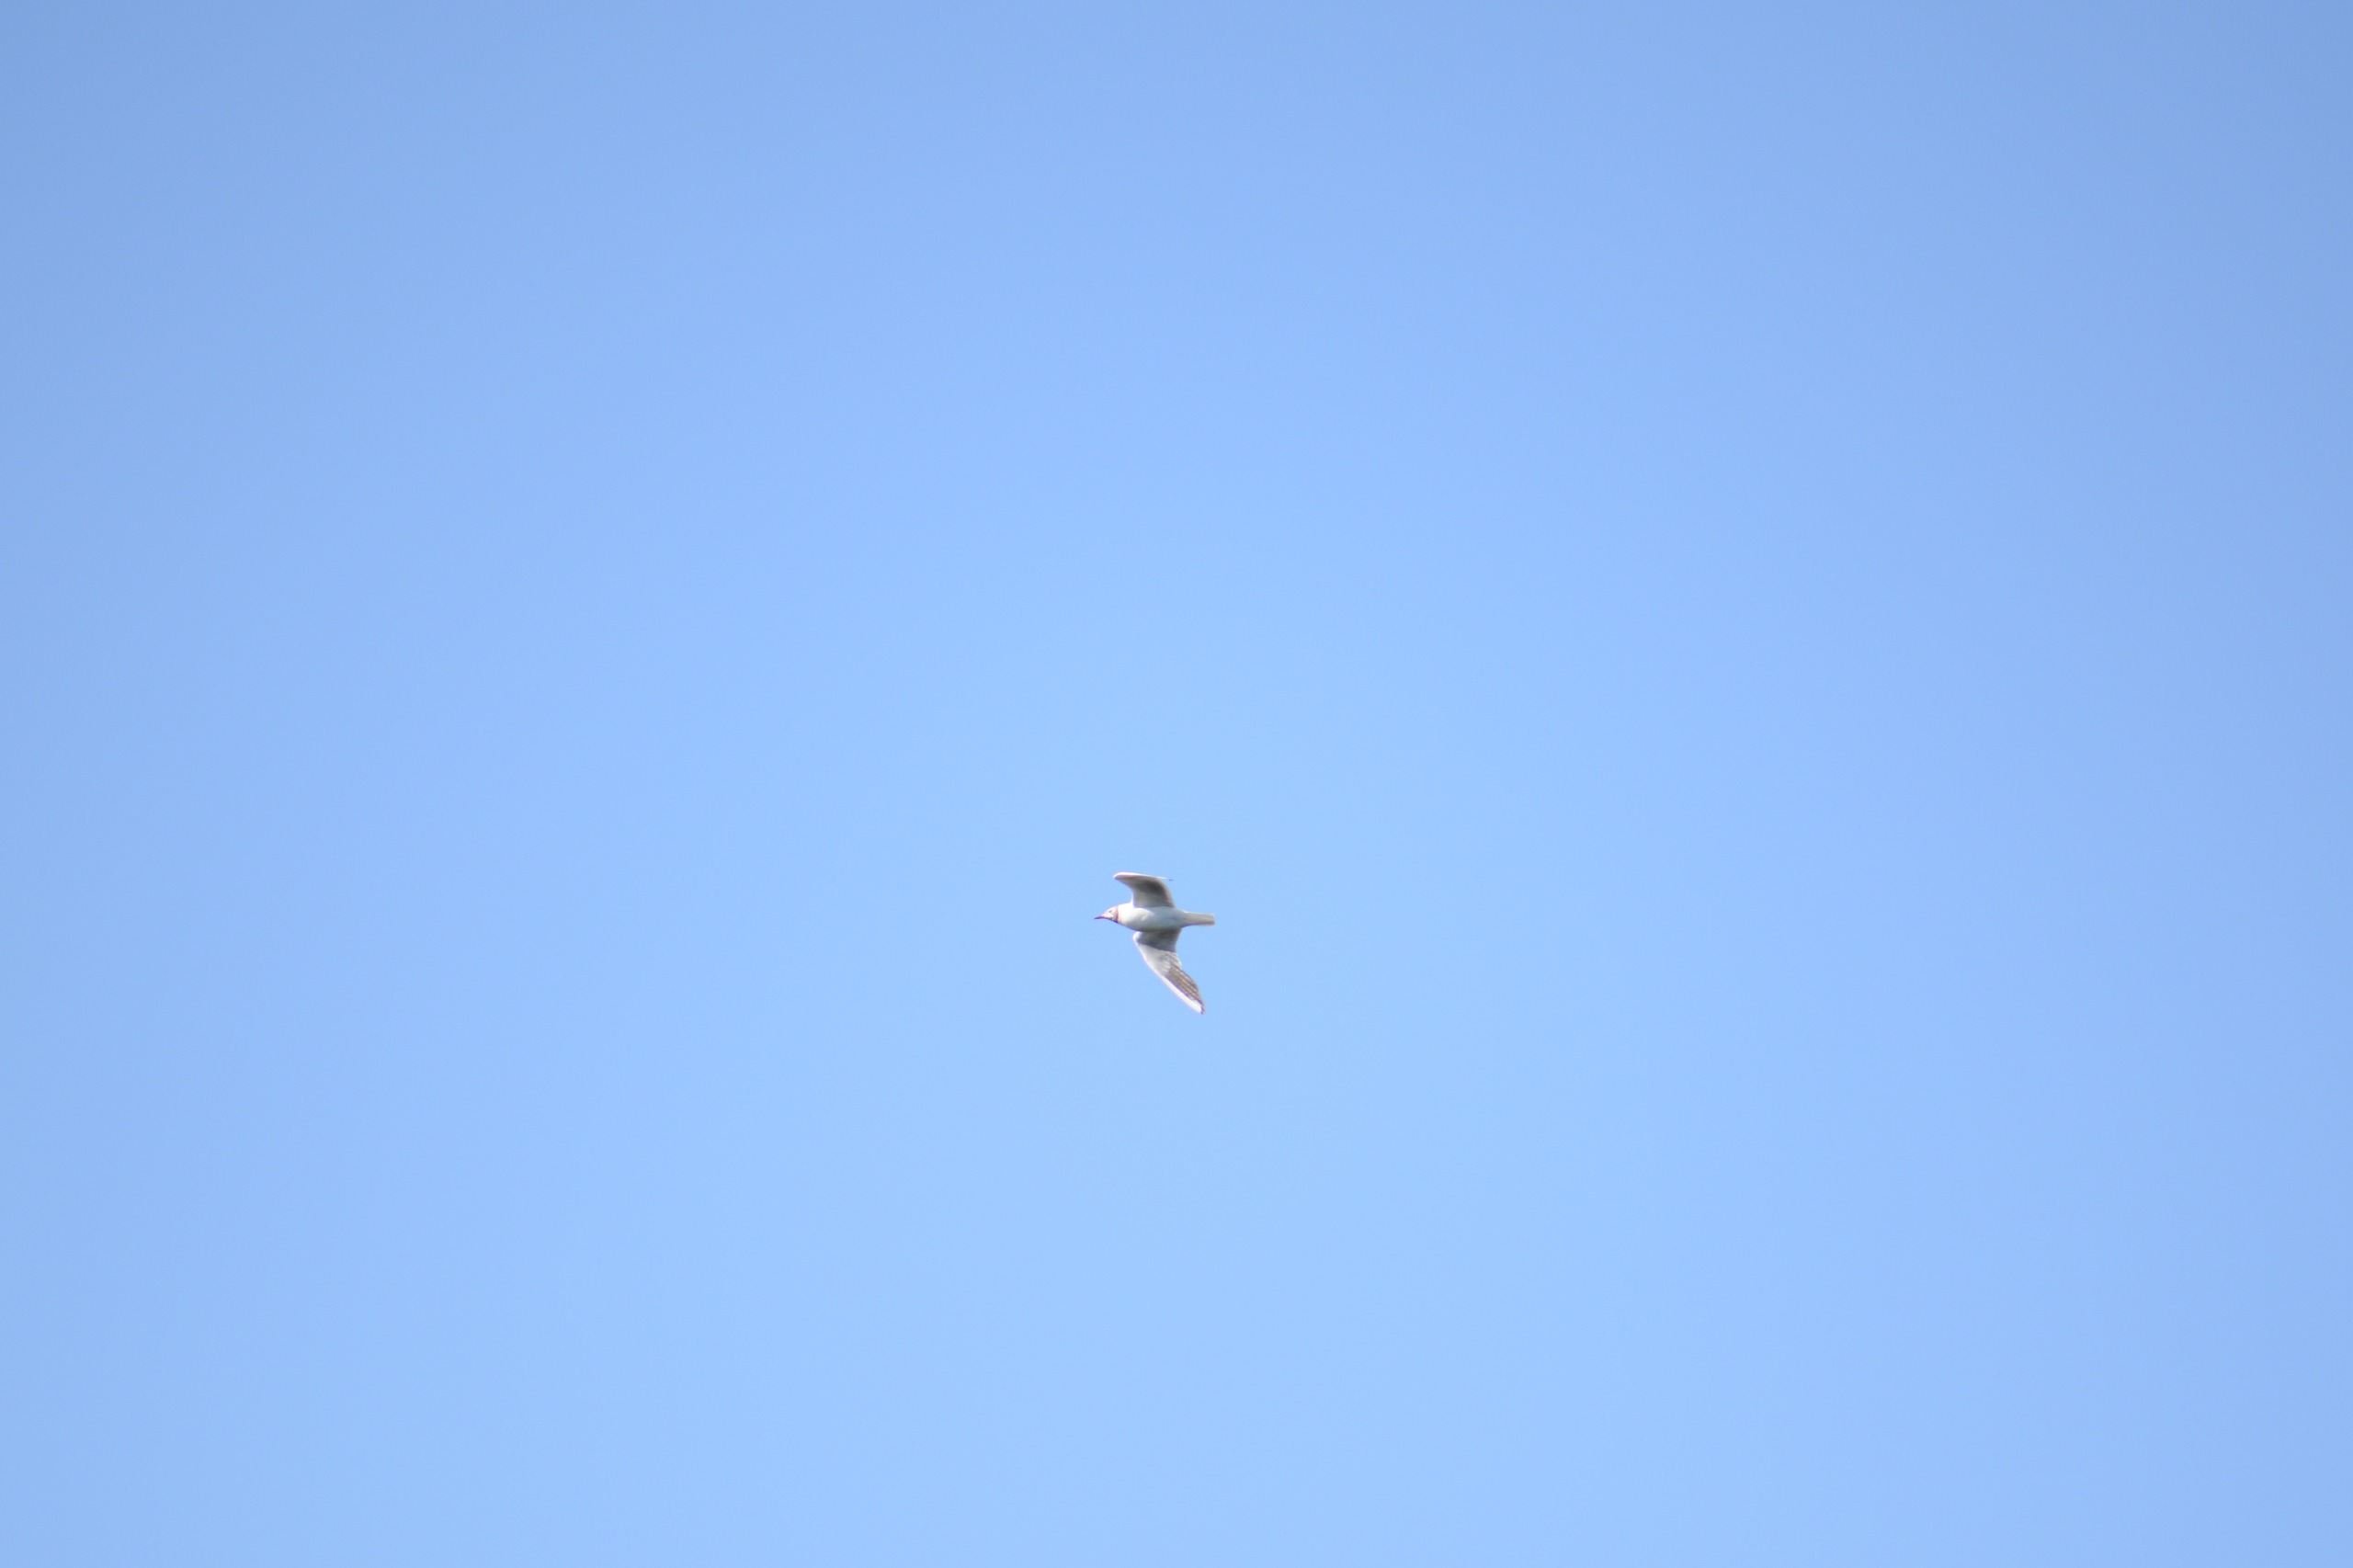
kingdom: Animalia
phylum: Chordata
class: Aves
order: Charadriiformes
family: Laridae
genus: Chroicocephalus
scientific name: Chroicocephalus ridibundus
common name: Hættemåge
